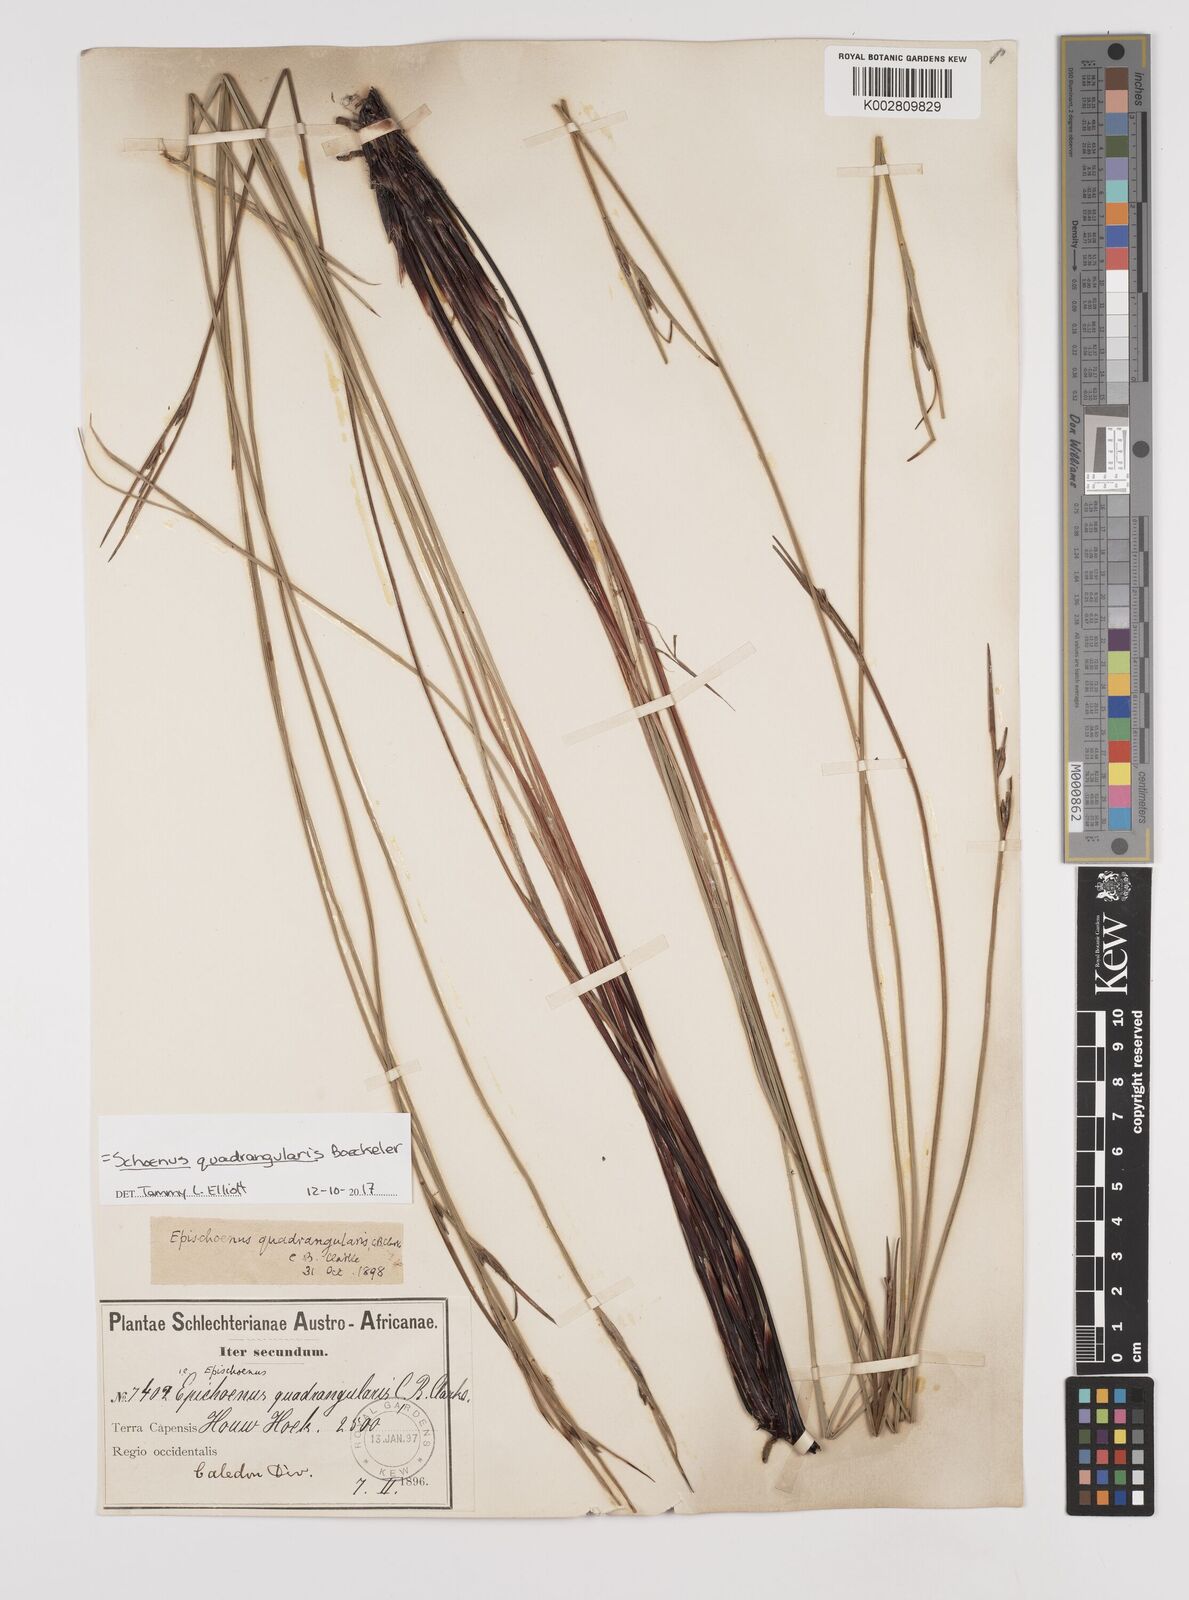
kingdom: Plantae
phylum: Tracheophyta
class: Liliopsida
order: Poales
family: Cyperaceae
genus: Schoenus
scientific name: Schoenus quadrangularis
